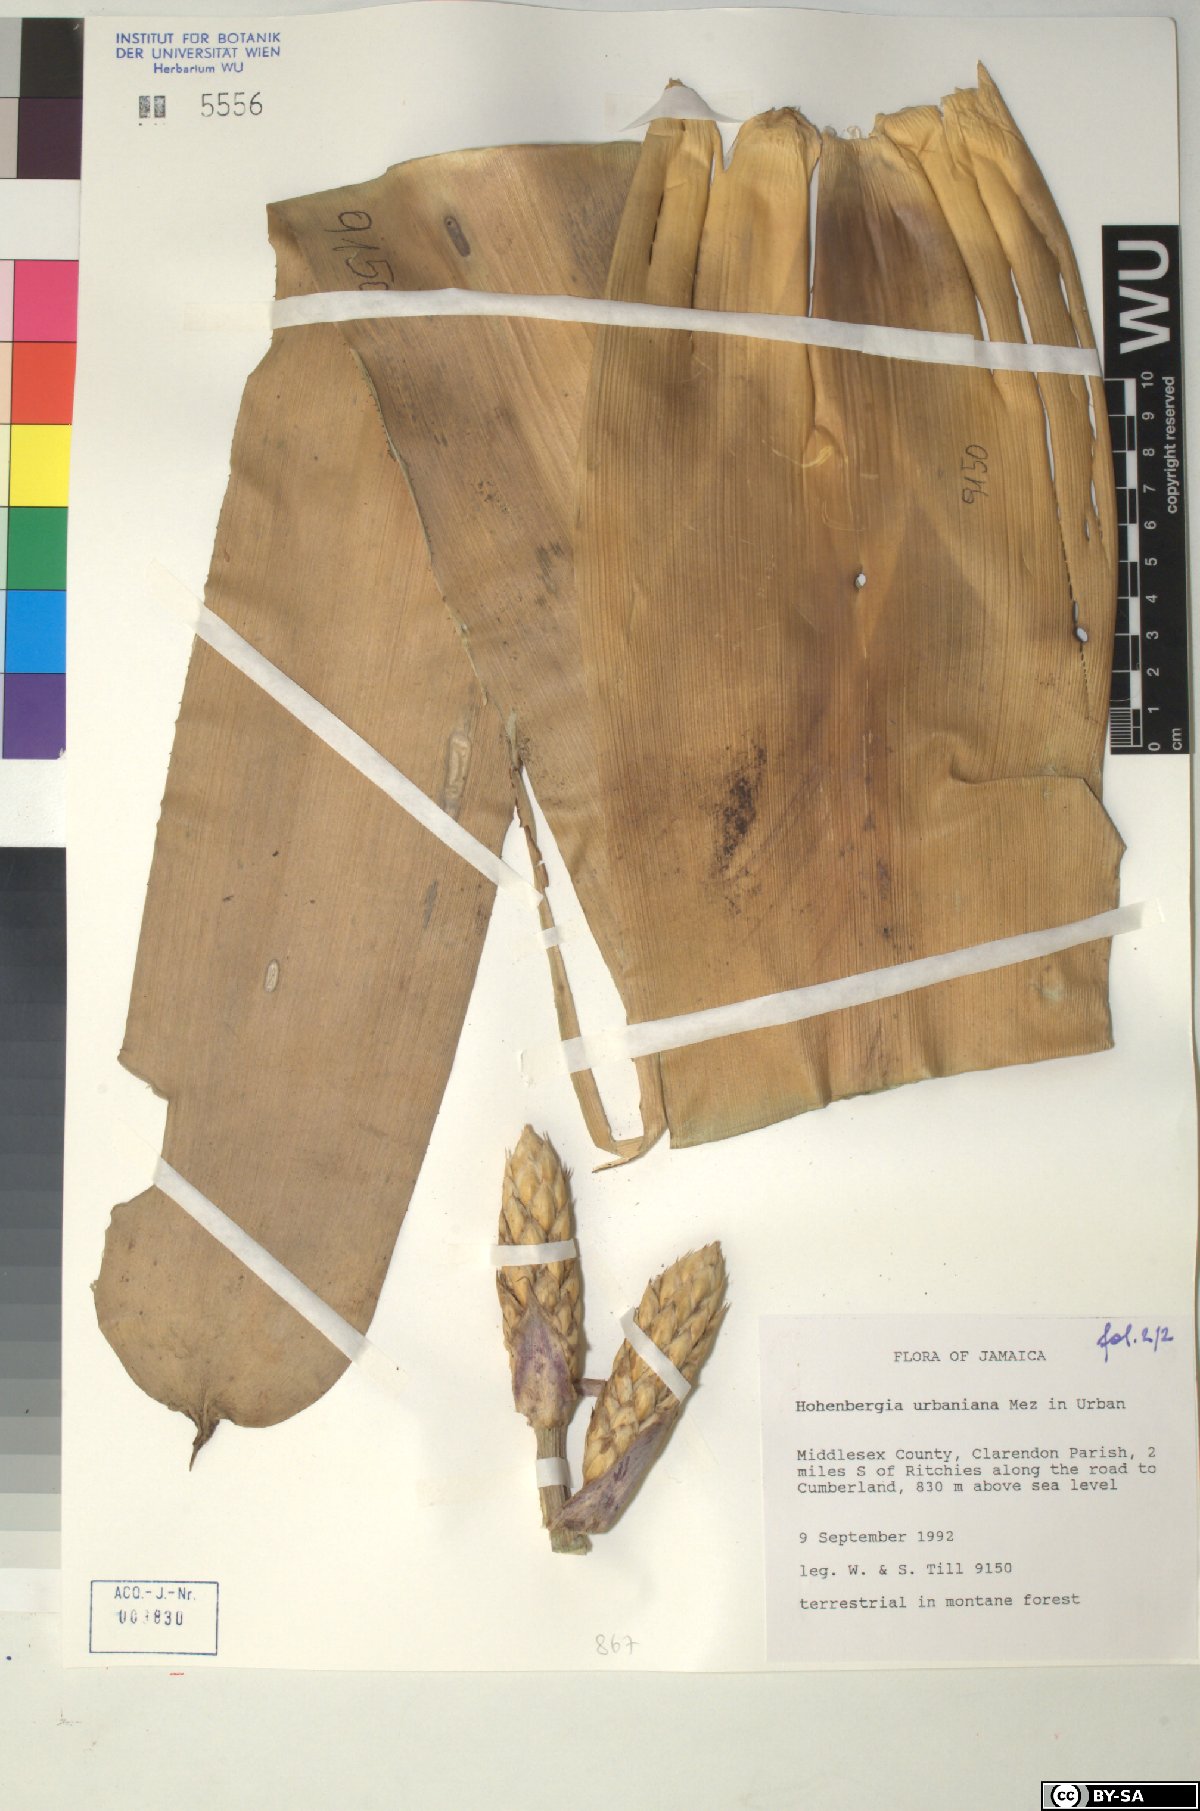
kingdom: Plantae
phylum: Tracheophyta
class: Liliopsida
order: Poales
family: Bromeliaceae
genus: Wittmackia
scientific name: Wittmackia urbaniana
